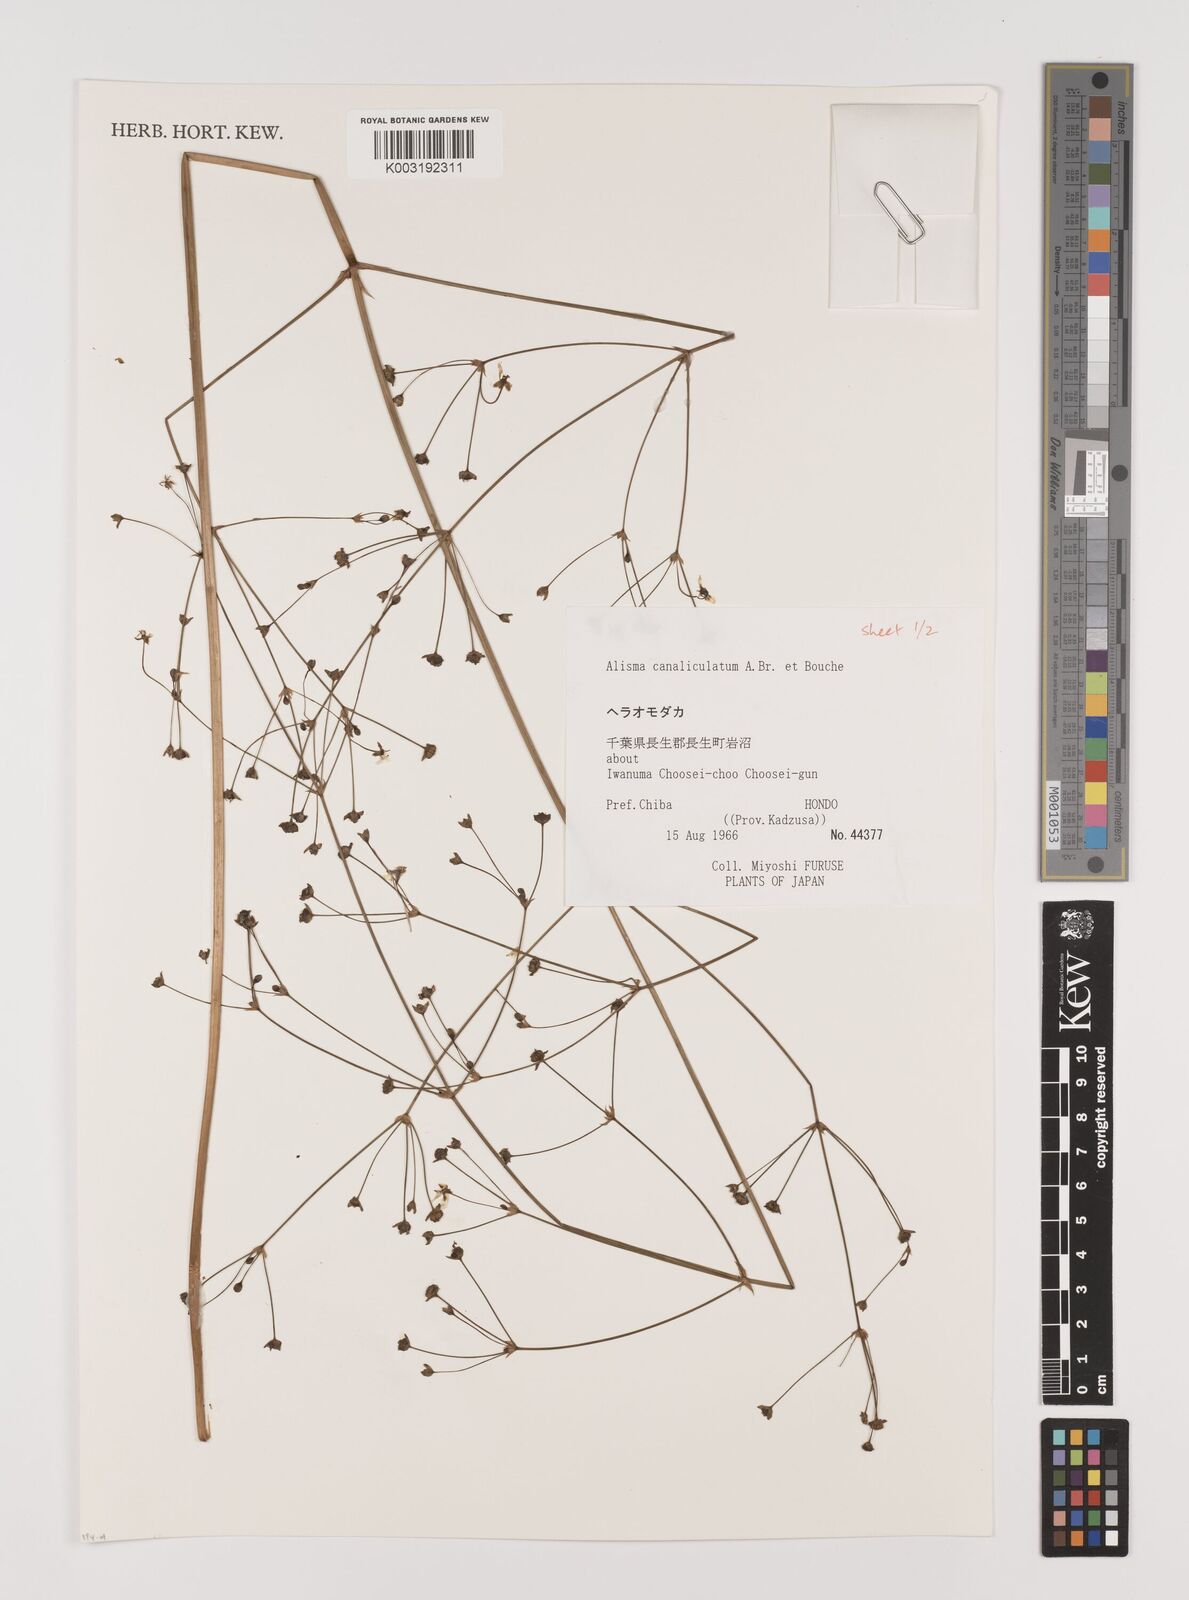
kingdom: Plantae
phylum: Tracheophyta
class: Liliopsida
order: Alismatales
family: Alismataceae
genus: Alisma
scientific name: Alisma canaliculatum
